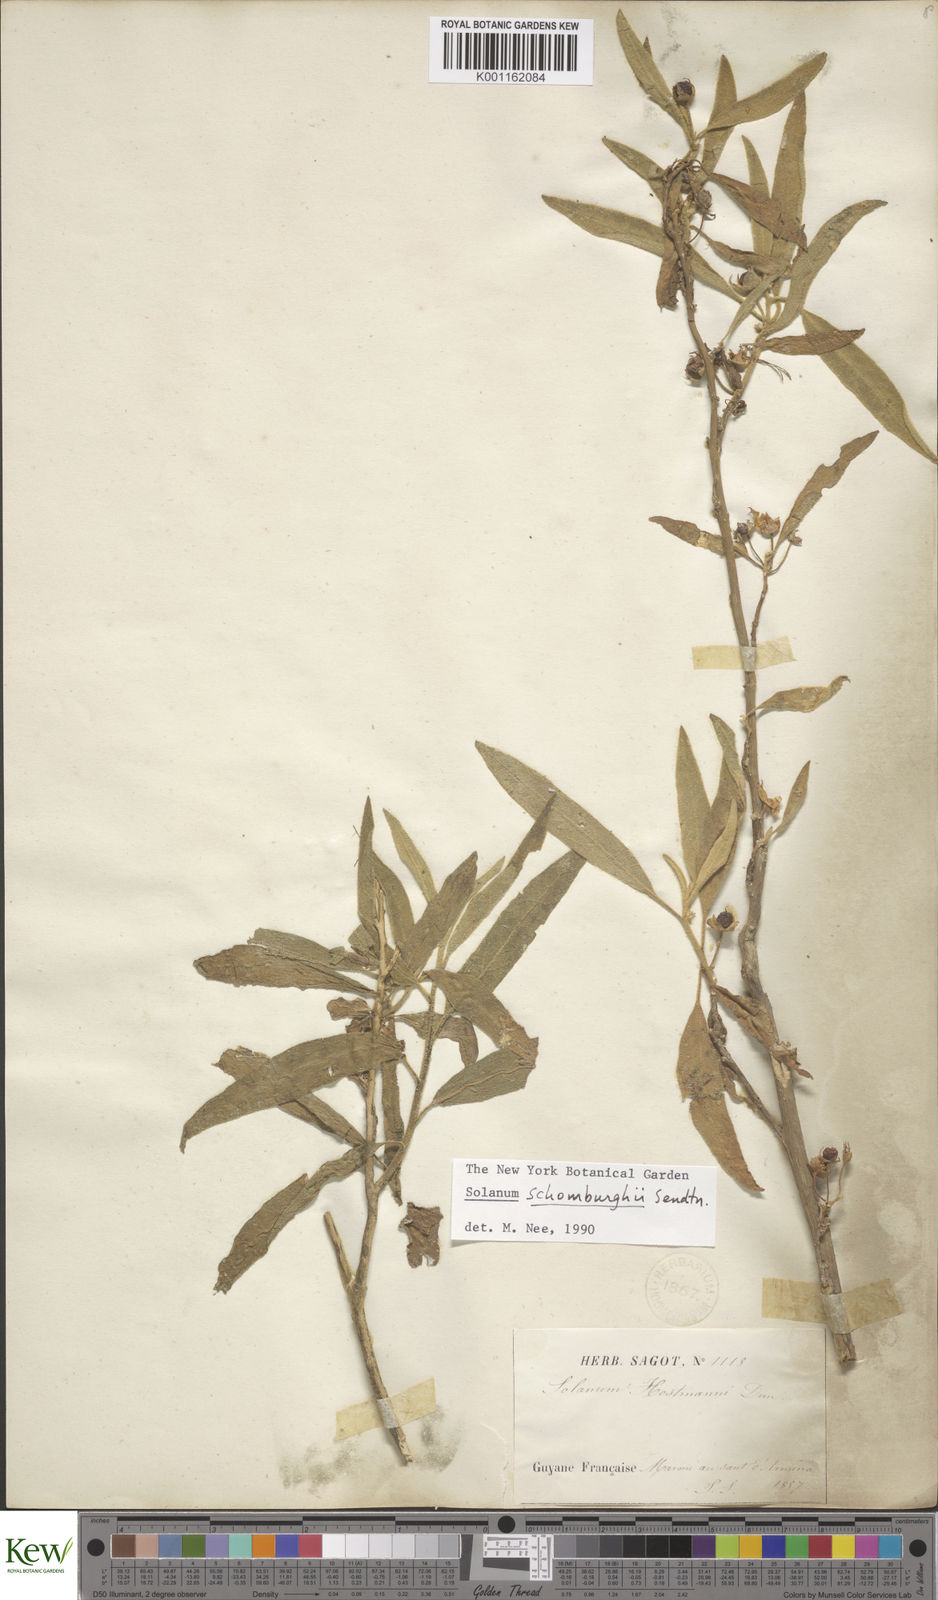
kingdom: Plantae
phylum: Tracheophyta
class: Magnoliopsida
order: Solanales
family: Solanaceae
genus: Solanum
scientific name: Solanum
